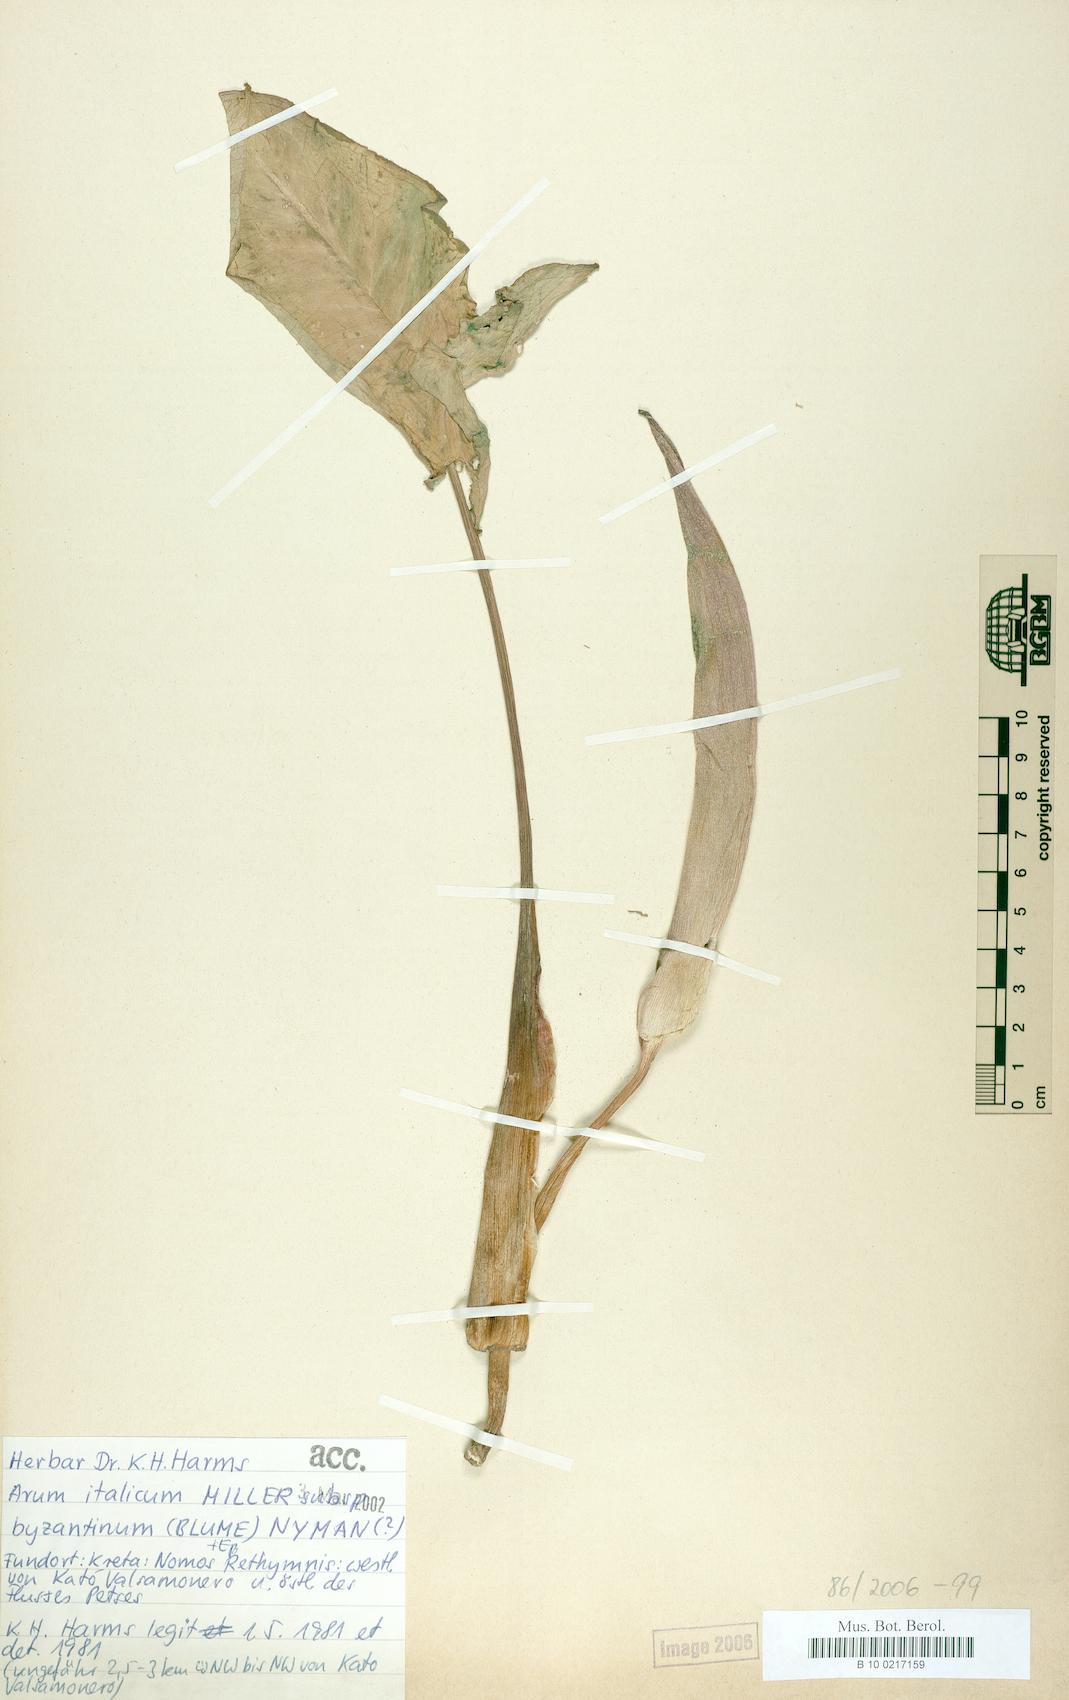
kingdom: Plantae
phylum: Tracheophyta
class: Liliopsida
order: Alismatales
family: Araceae
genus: Arum
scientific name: Arum italicum
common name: Italian lords-and-ladies
